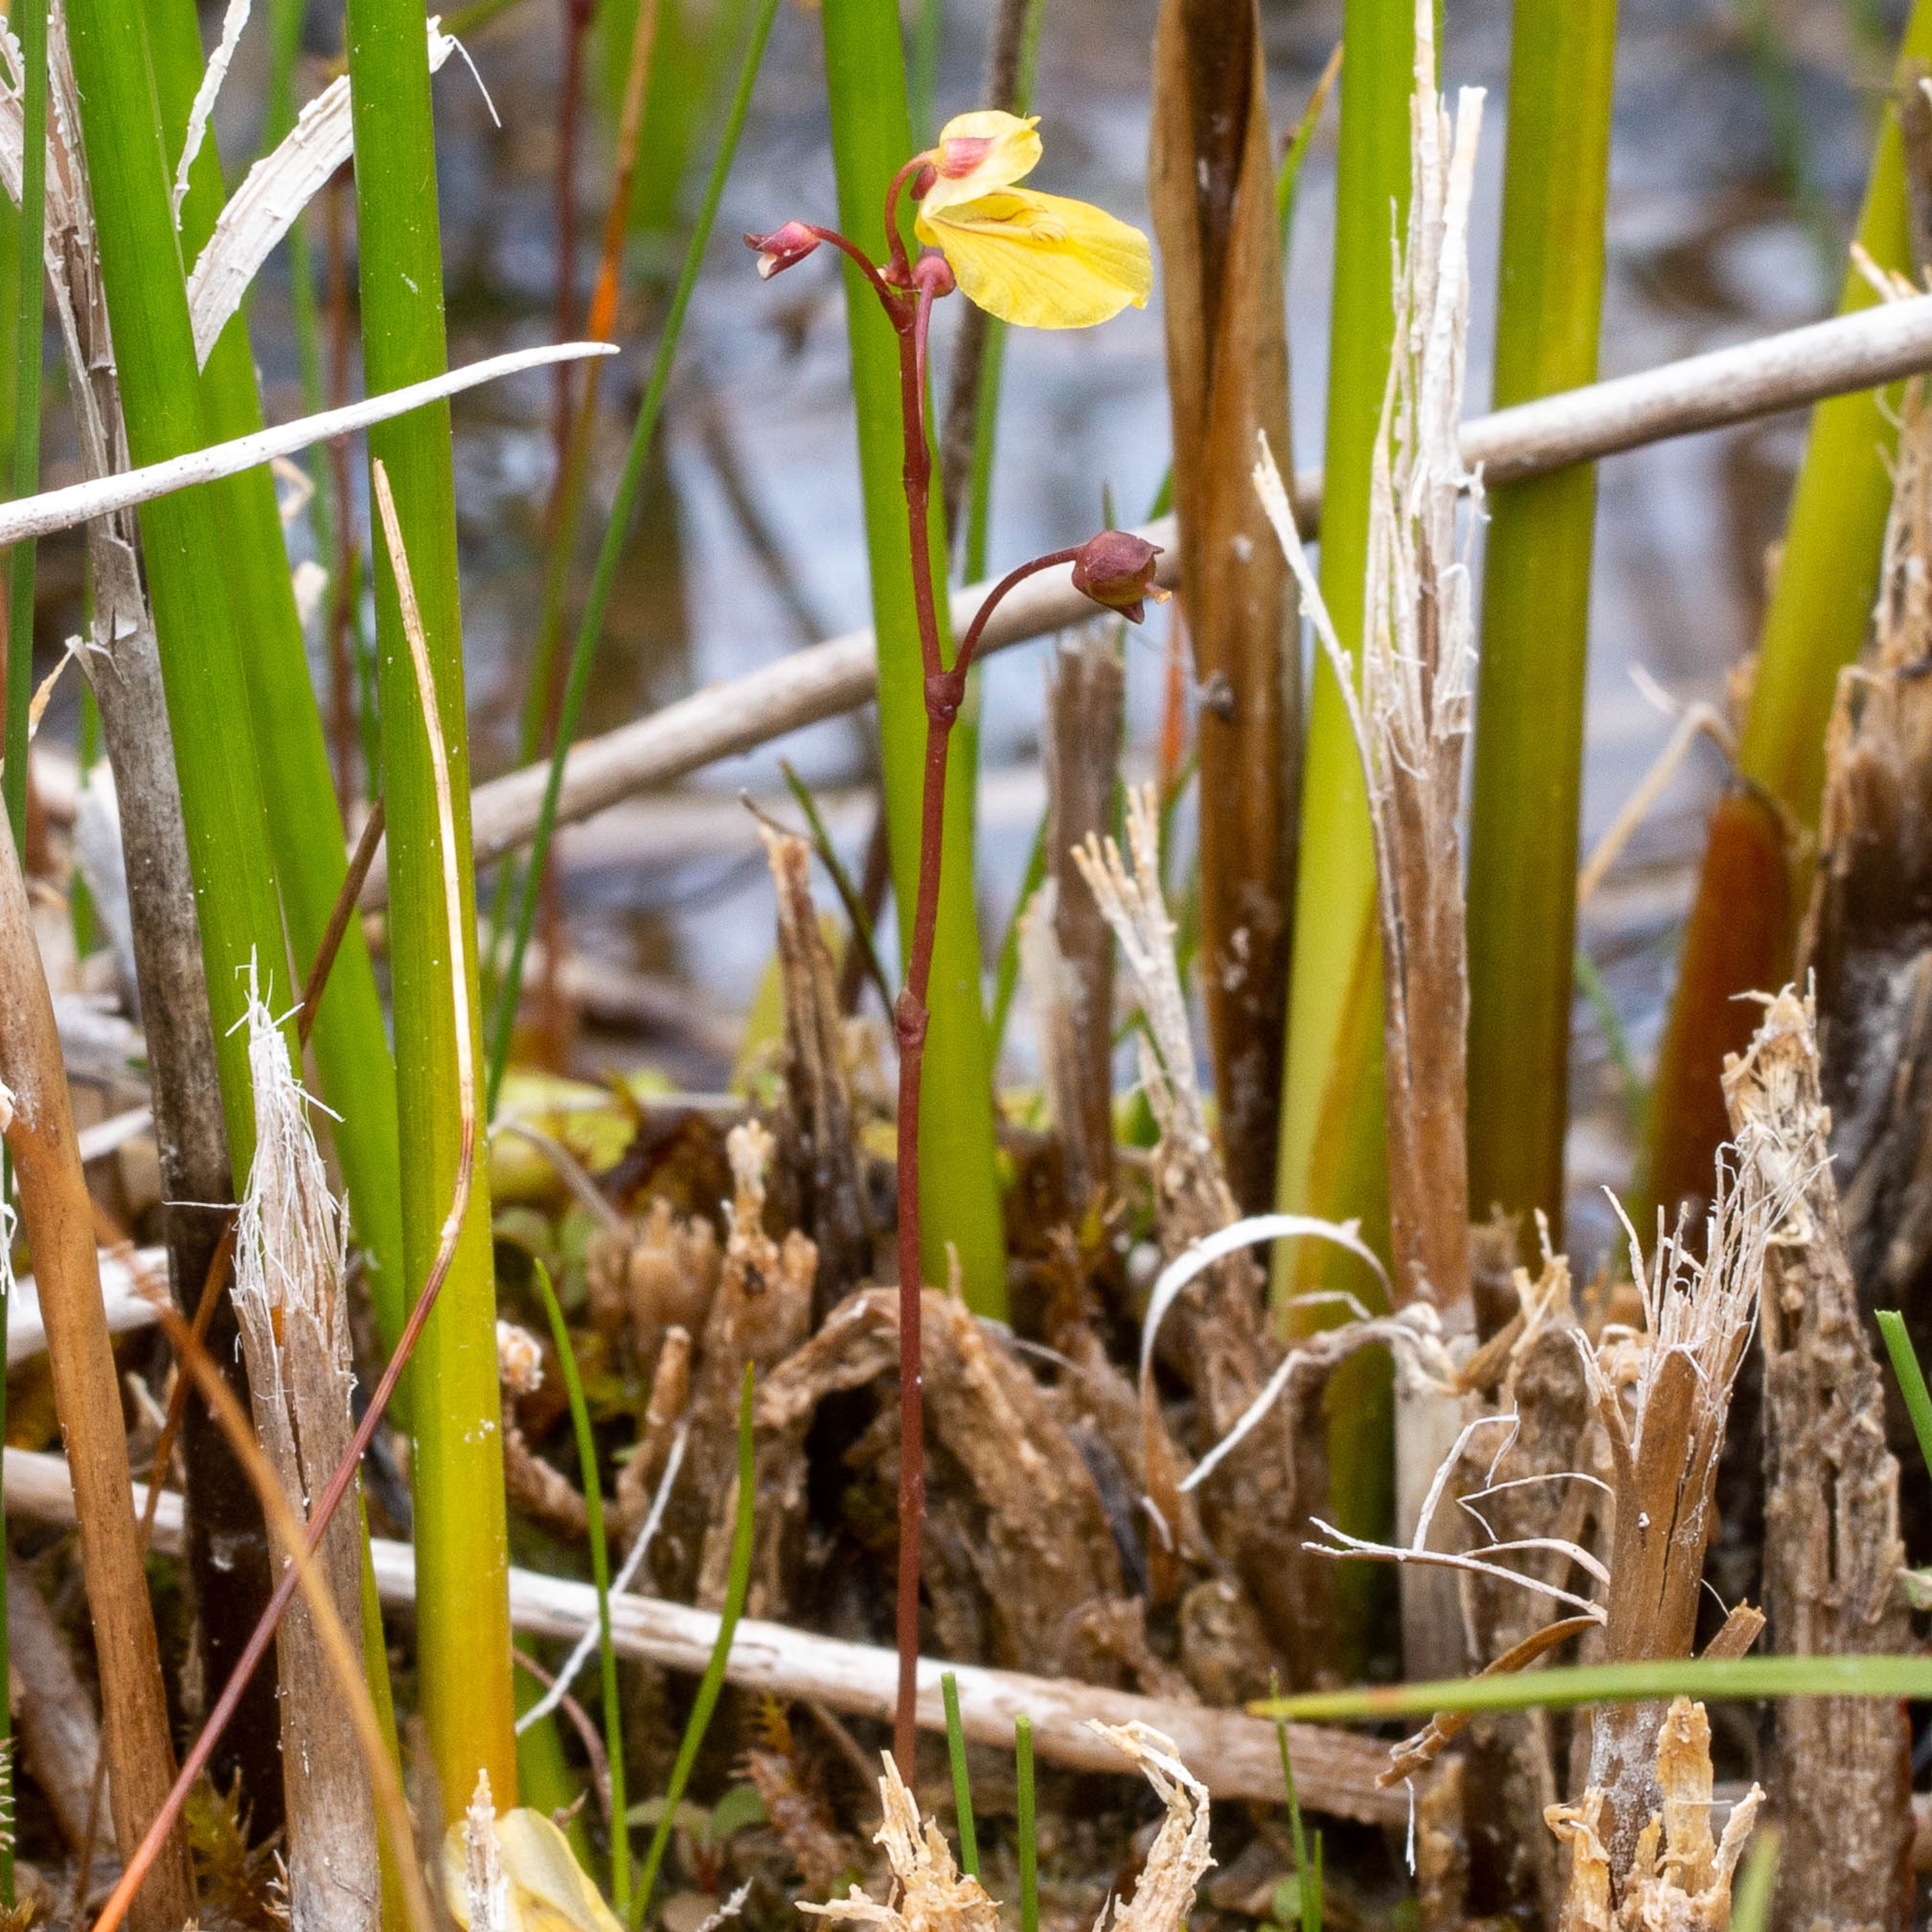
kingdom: Plantae
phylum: Tracheophyta
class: Magnoliopsida
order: Lamiales
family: Lentibulariaceae
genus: Utricularia
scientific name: Utricularia minor
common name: Liden blærerod
